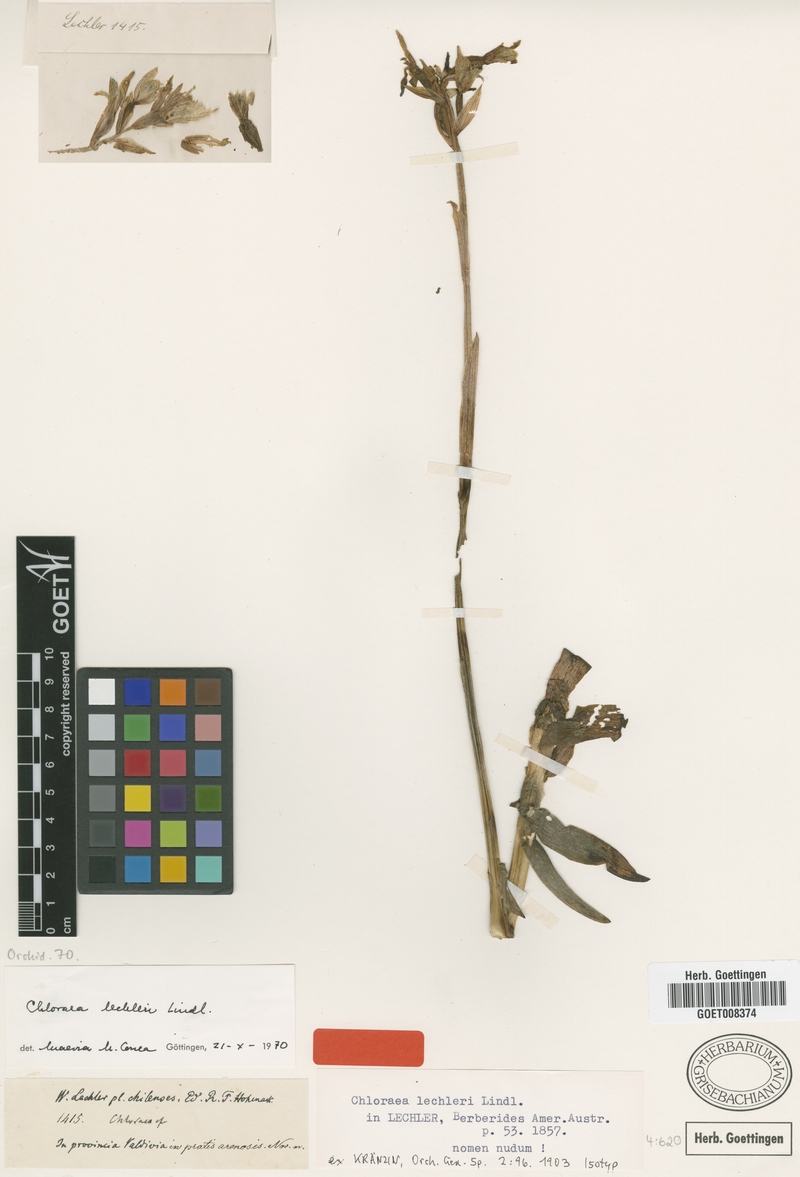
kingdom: Plantae
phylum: Tracheophyta
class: Liliopsida
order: Asparagales
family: Orchidaceae
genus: Chloraea
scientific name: Chloraea lechleri
